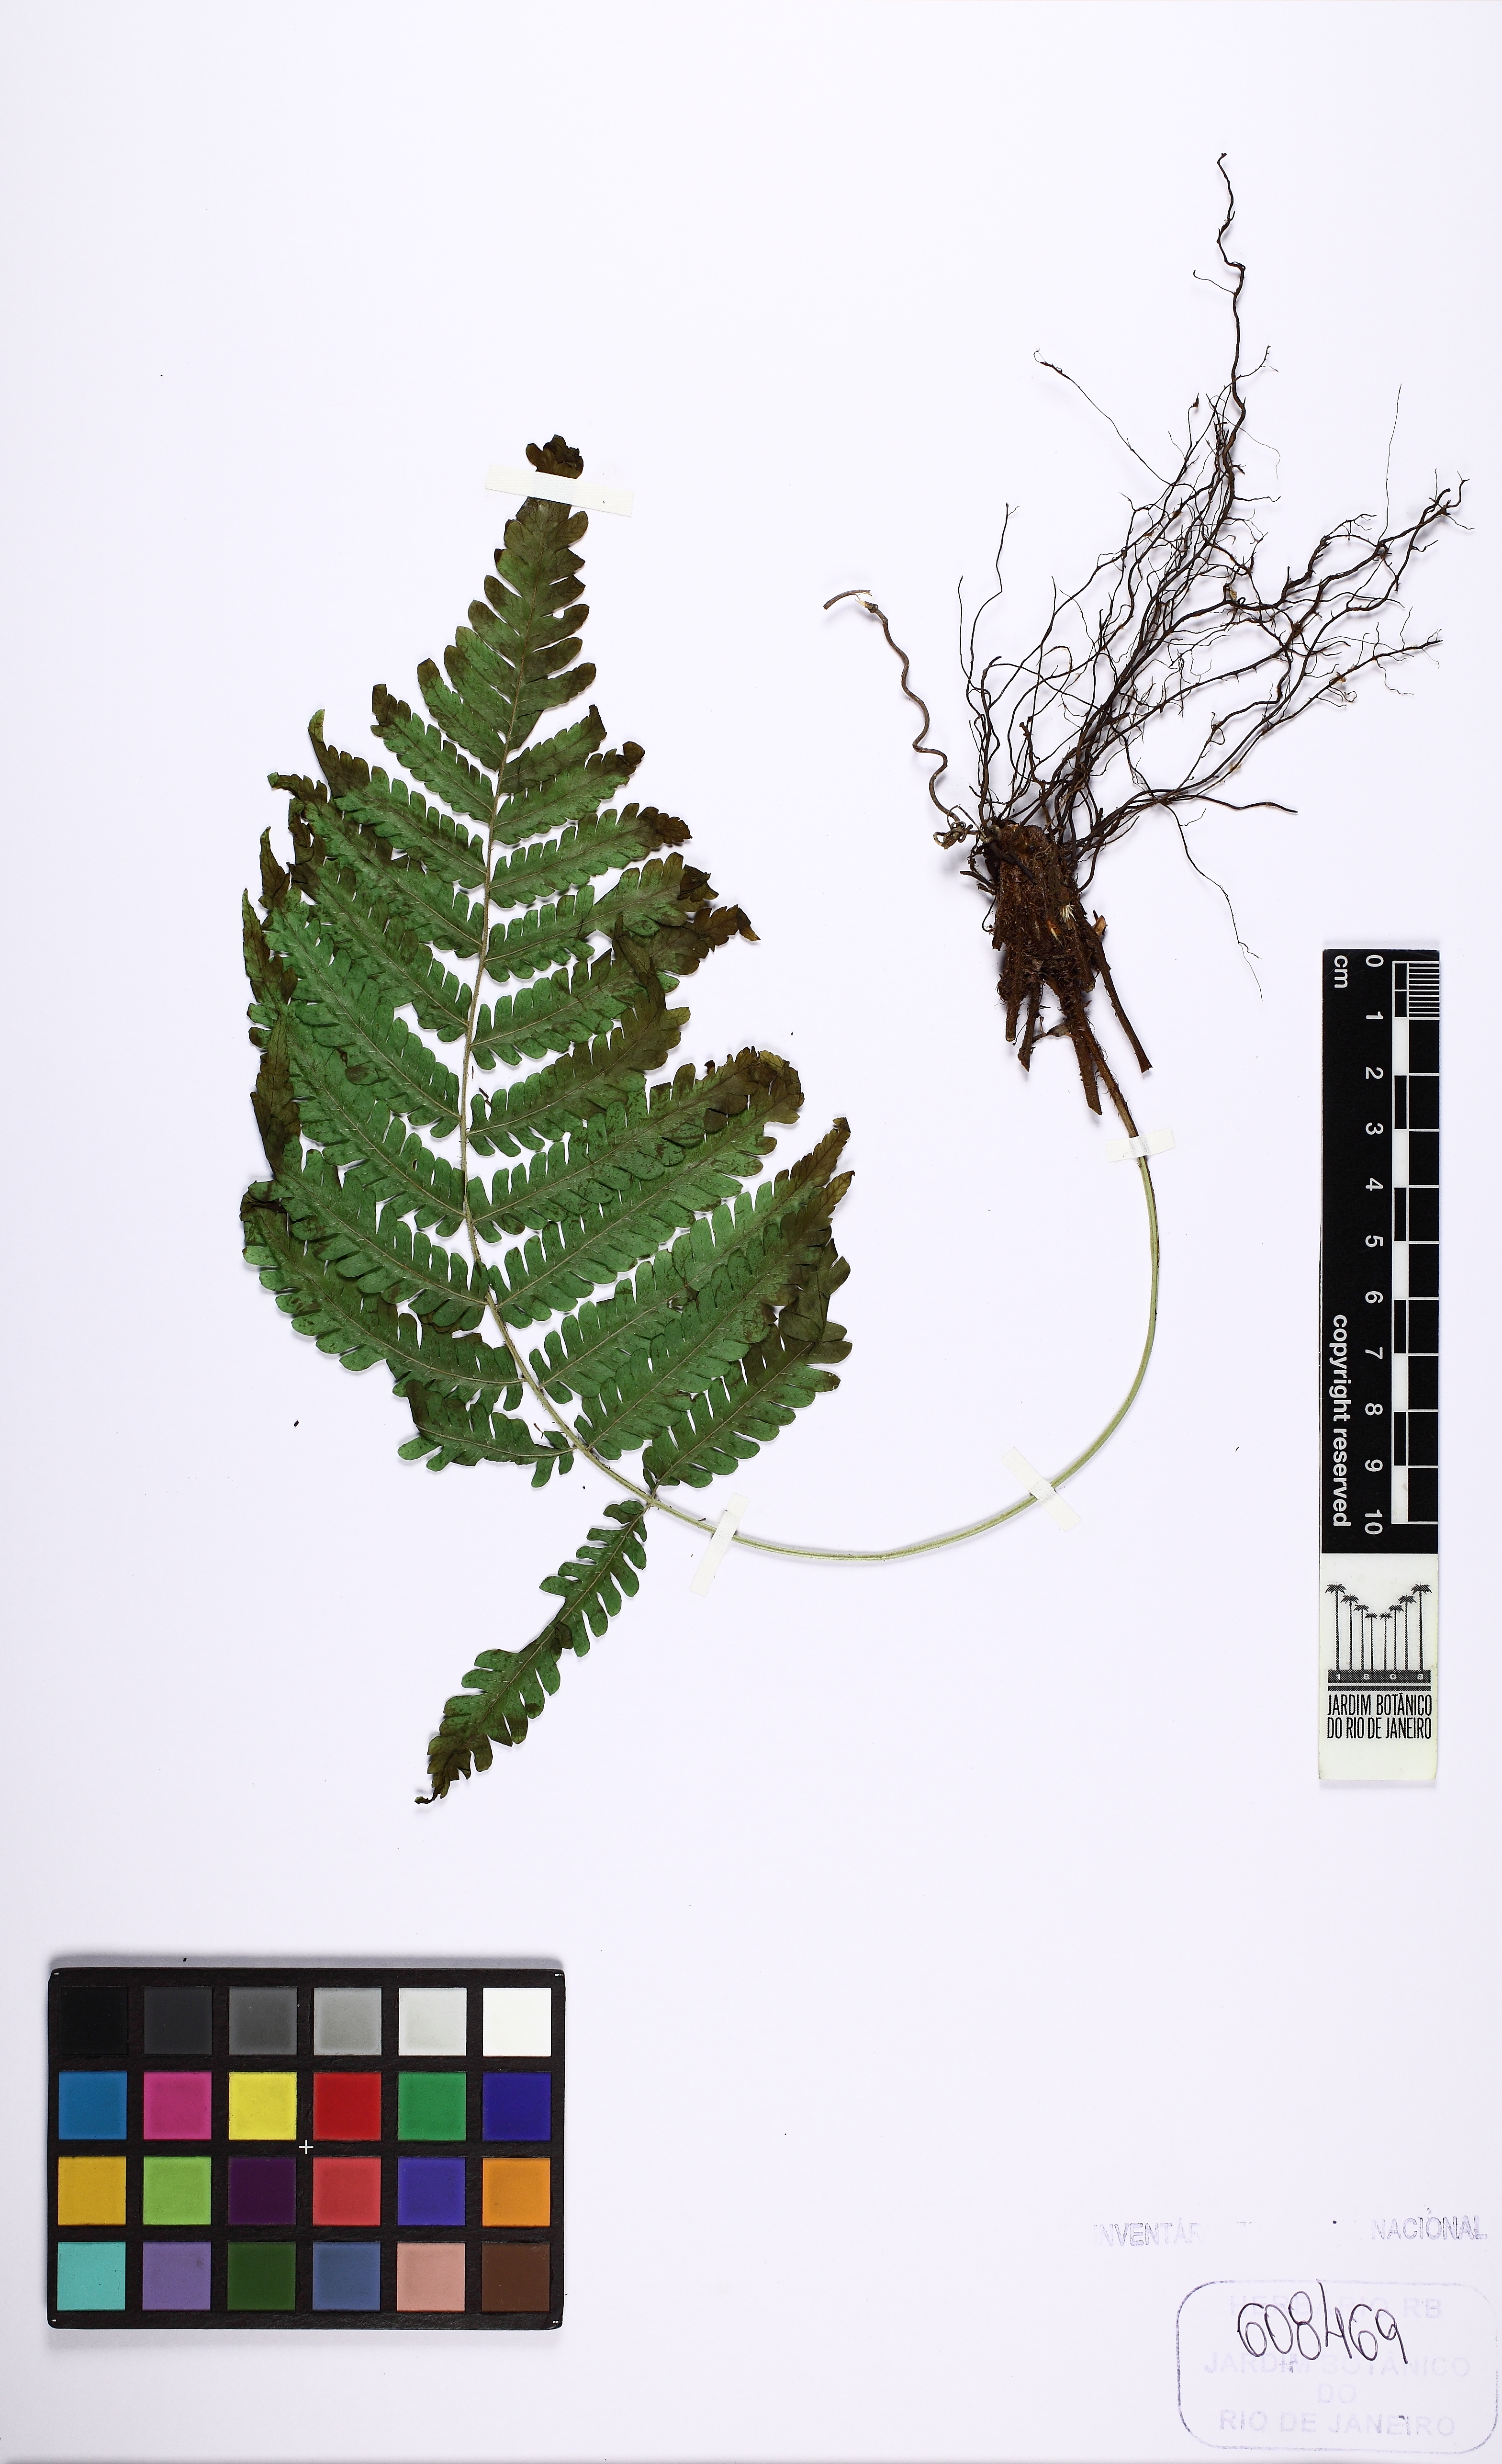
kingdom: Plantae
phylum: Tracheophyta
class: Polypodiopsida
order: Polypodiales
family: Dryopteridaceae
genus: Ctenitis
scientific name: Ctenitis christensenii
